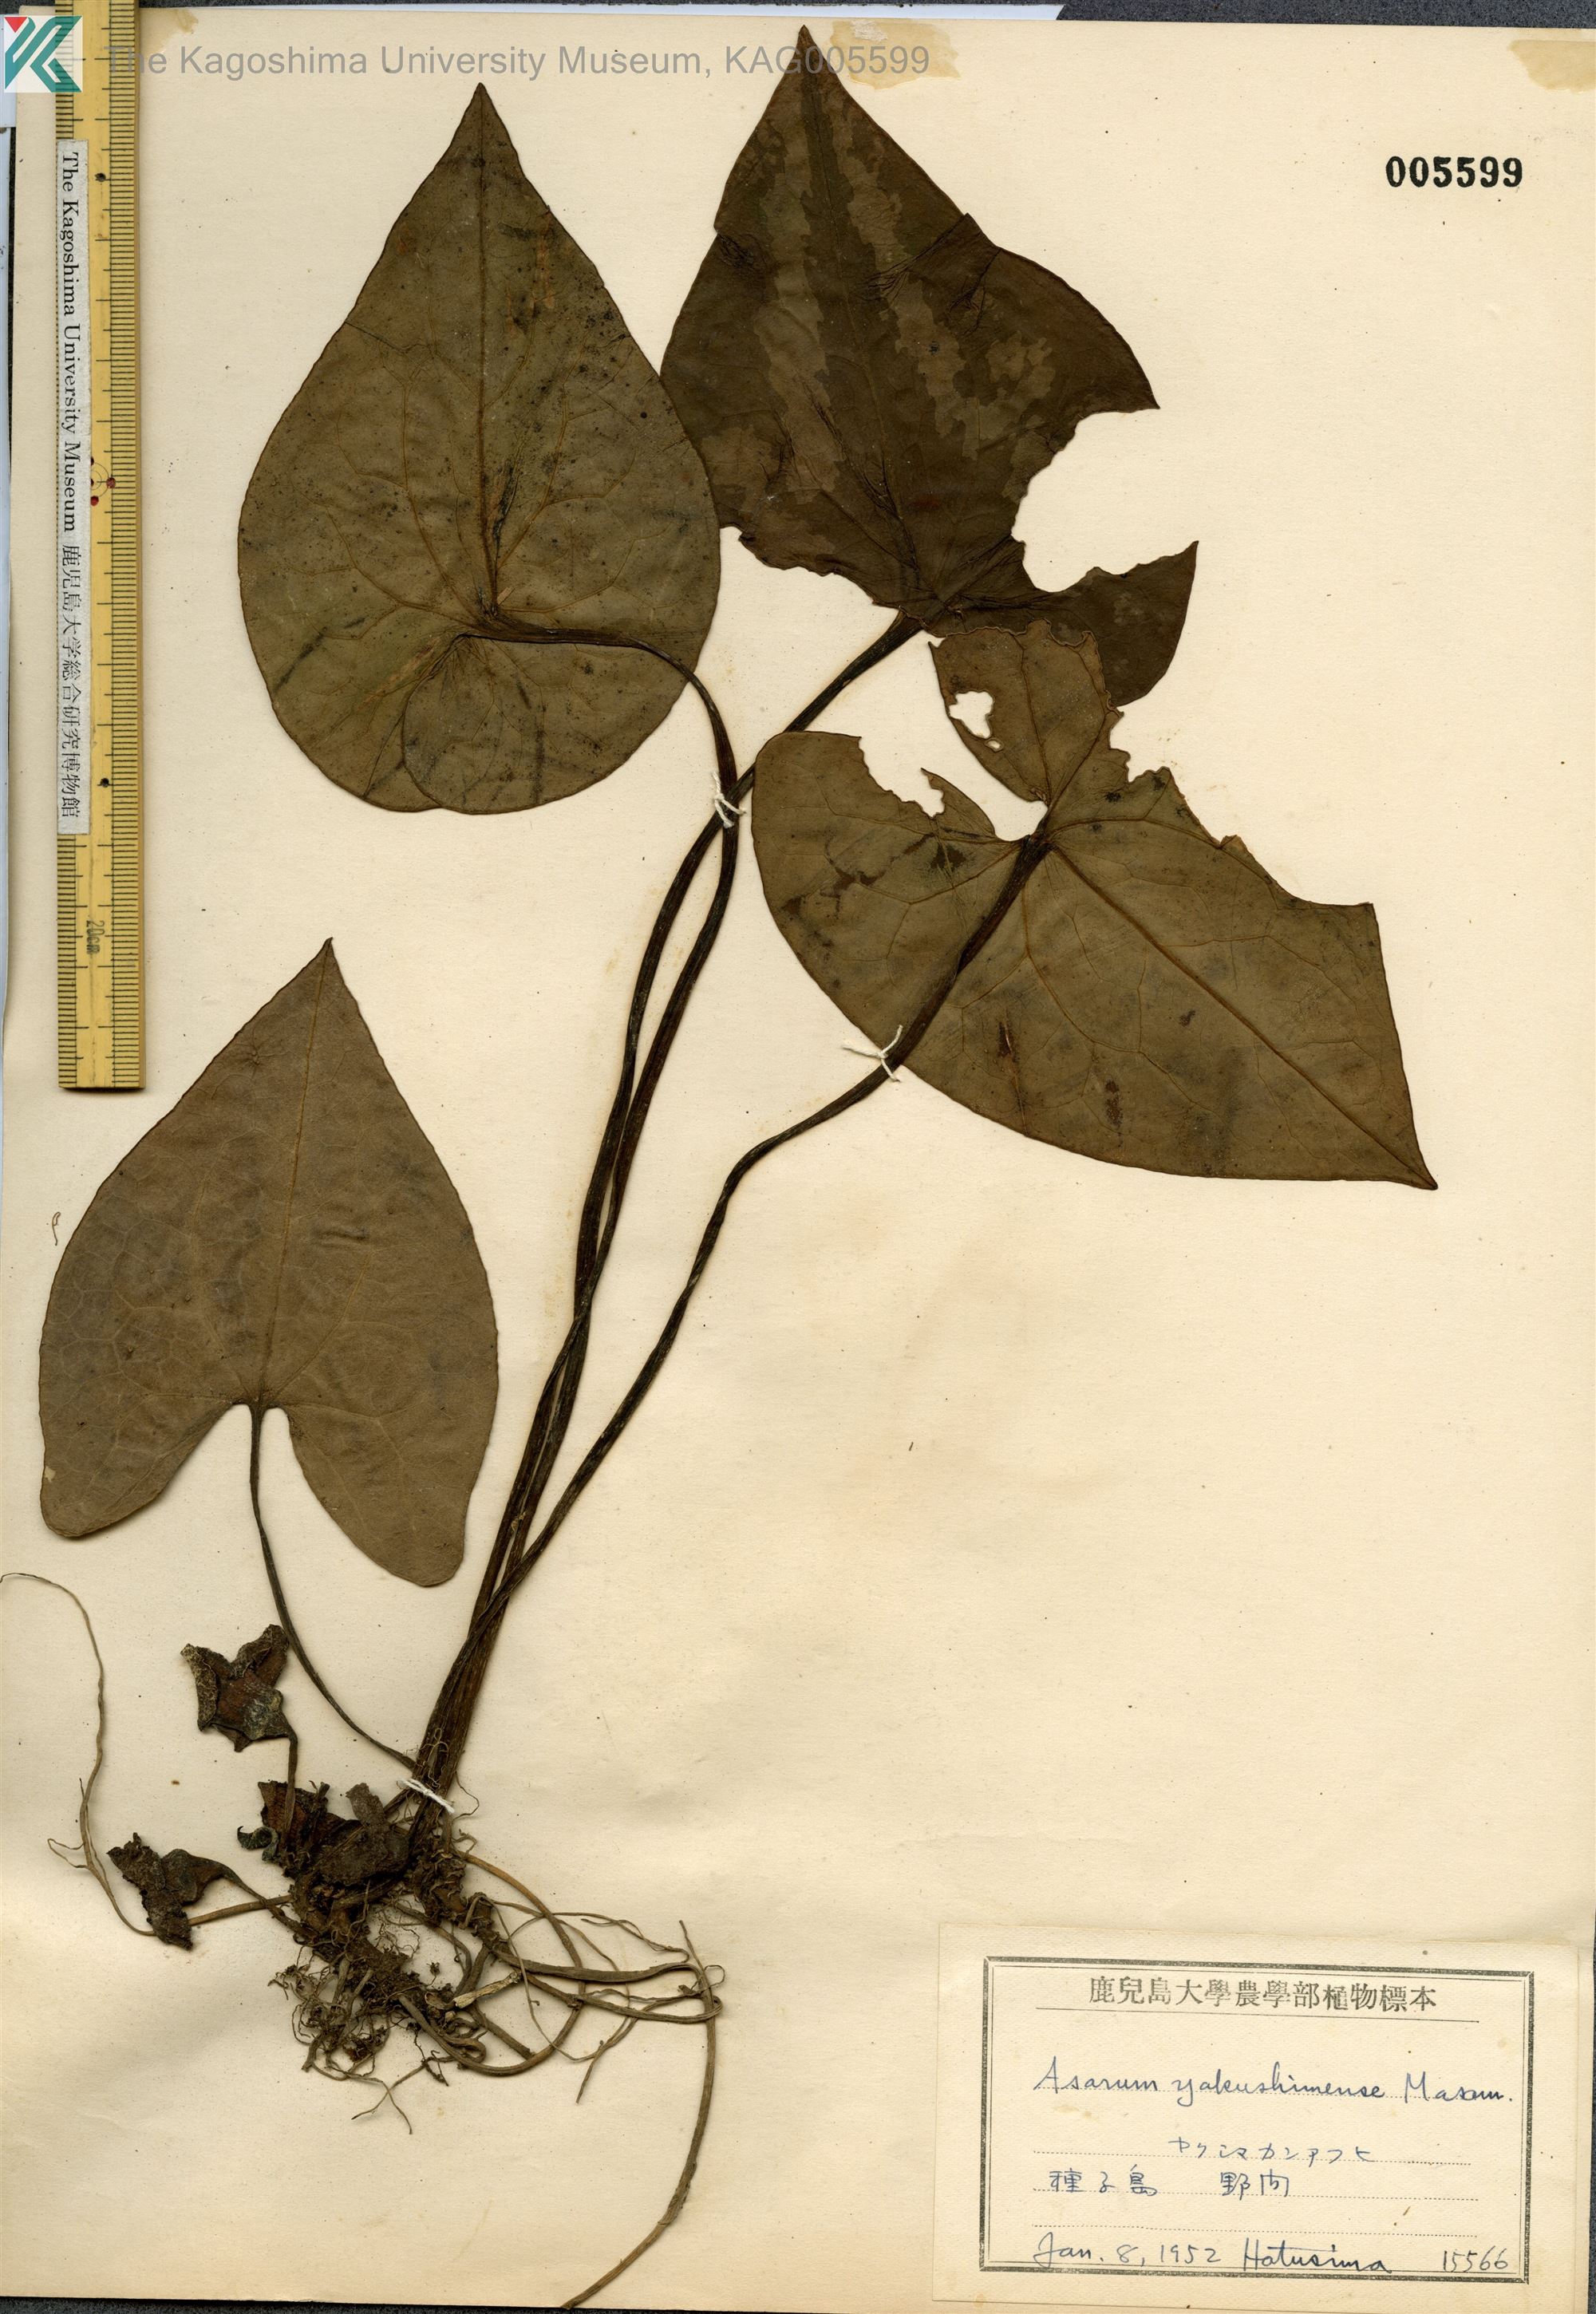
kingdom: Plantae
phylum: Tracheophyta
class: Magnoliopsida
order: Piperales
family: Aristolochiaceae
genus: Asarum
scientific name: Asarum kumageanum
